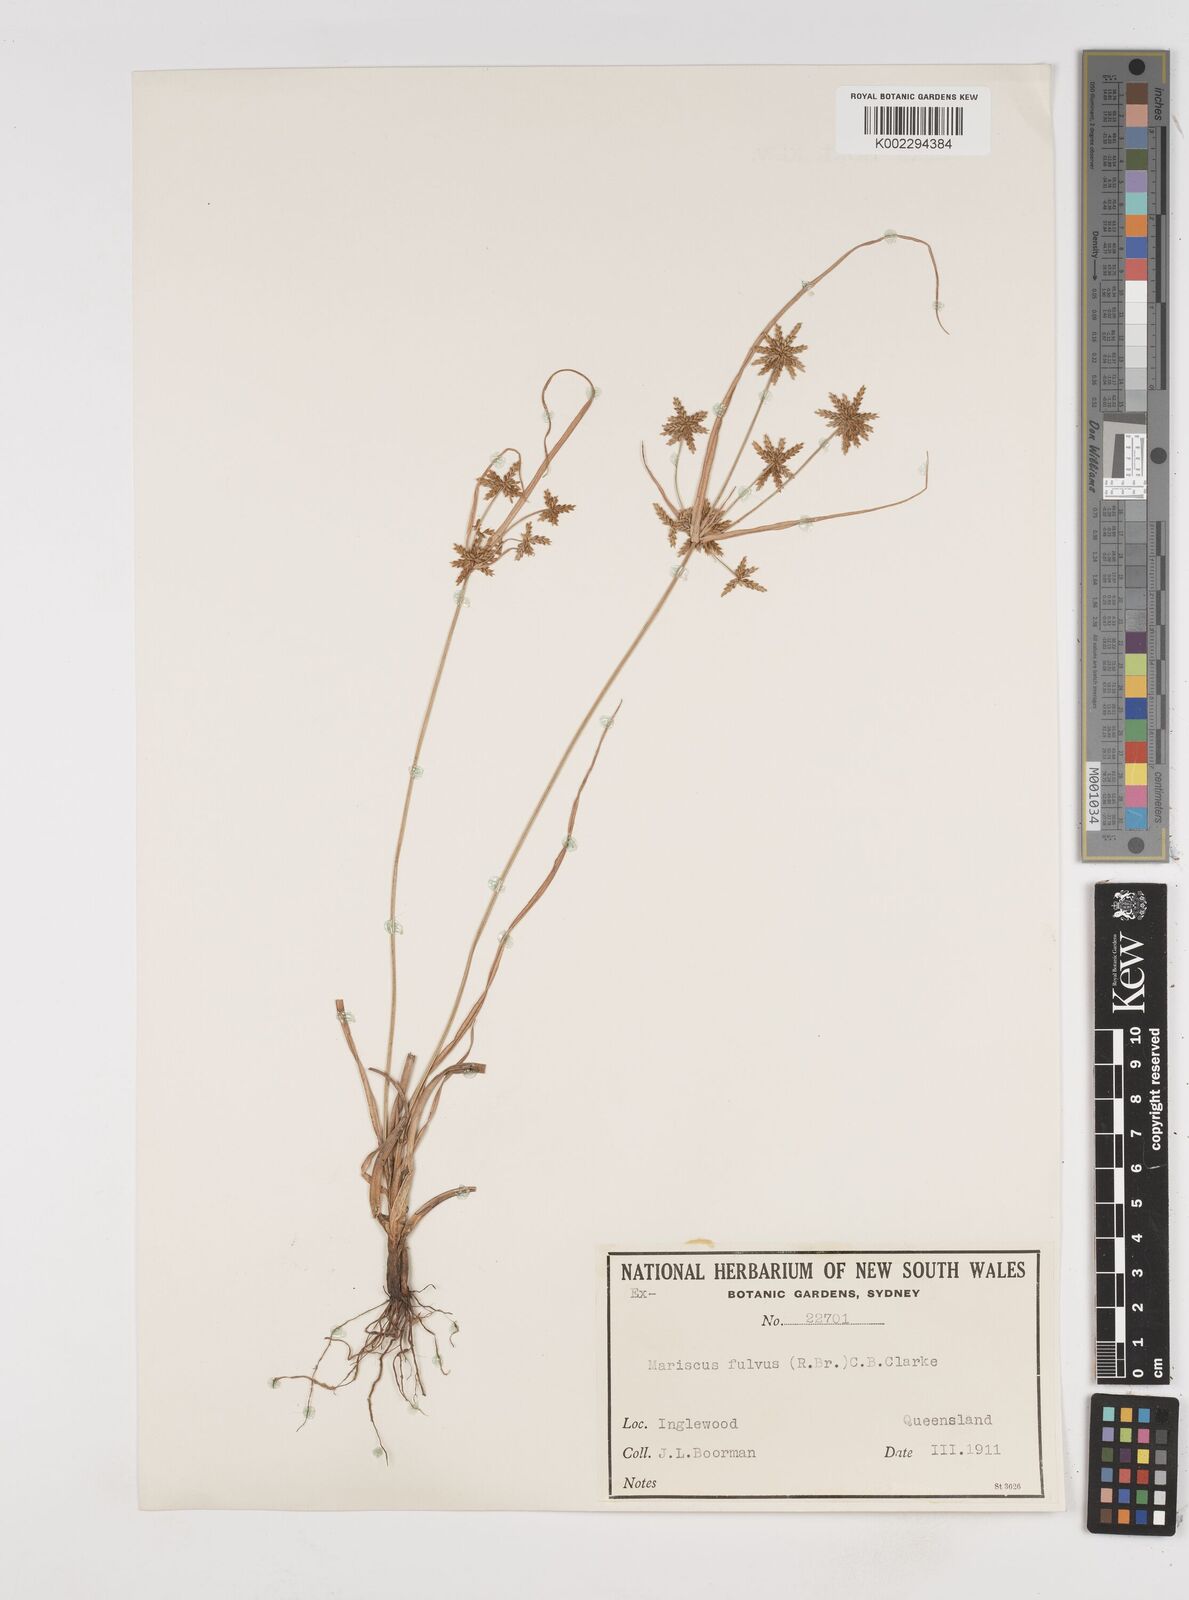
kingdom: Plantae
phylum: Tracheophyta
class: Liliopsida
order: Poales
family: Cyperaceae
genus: Cyperus
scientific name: Cyperus fulvus
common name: Sticky sedge
